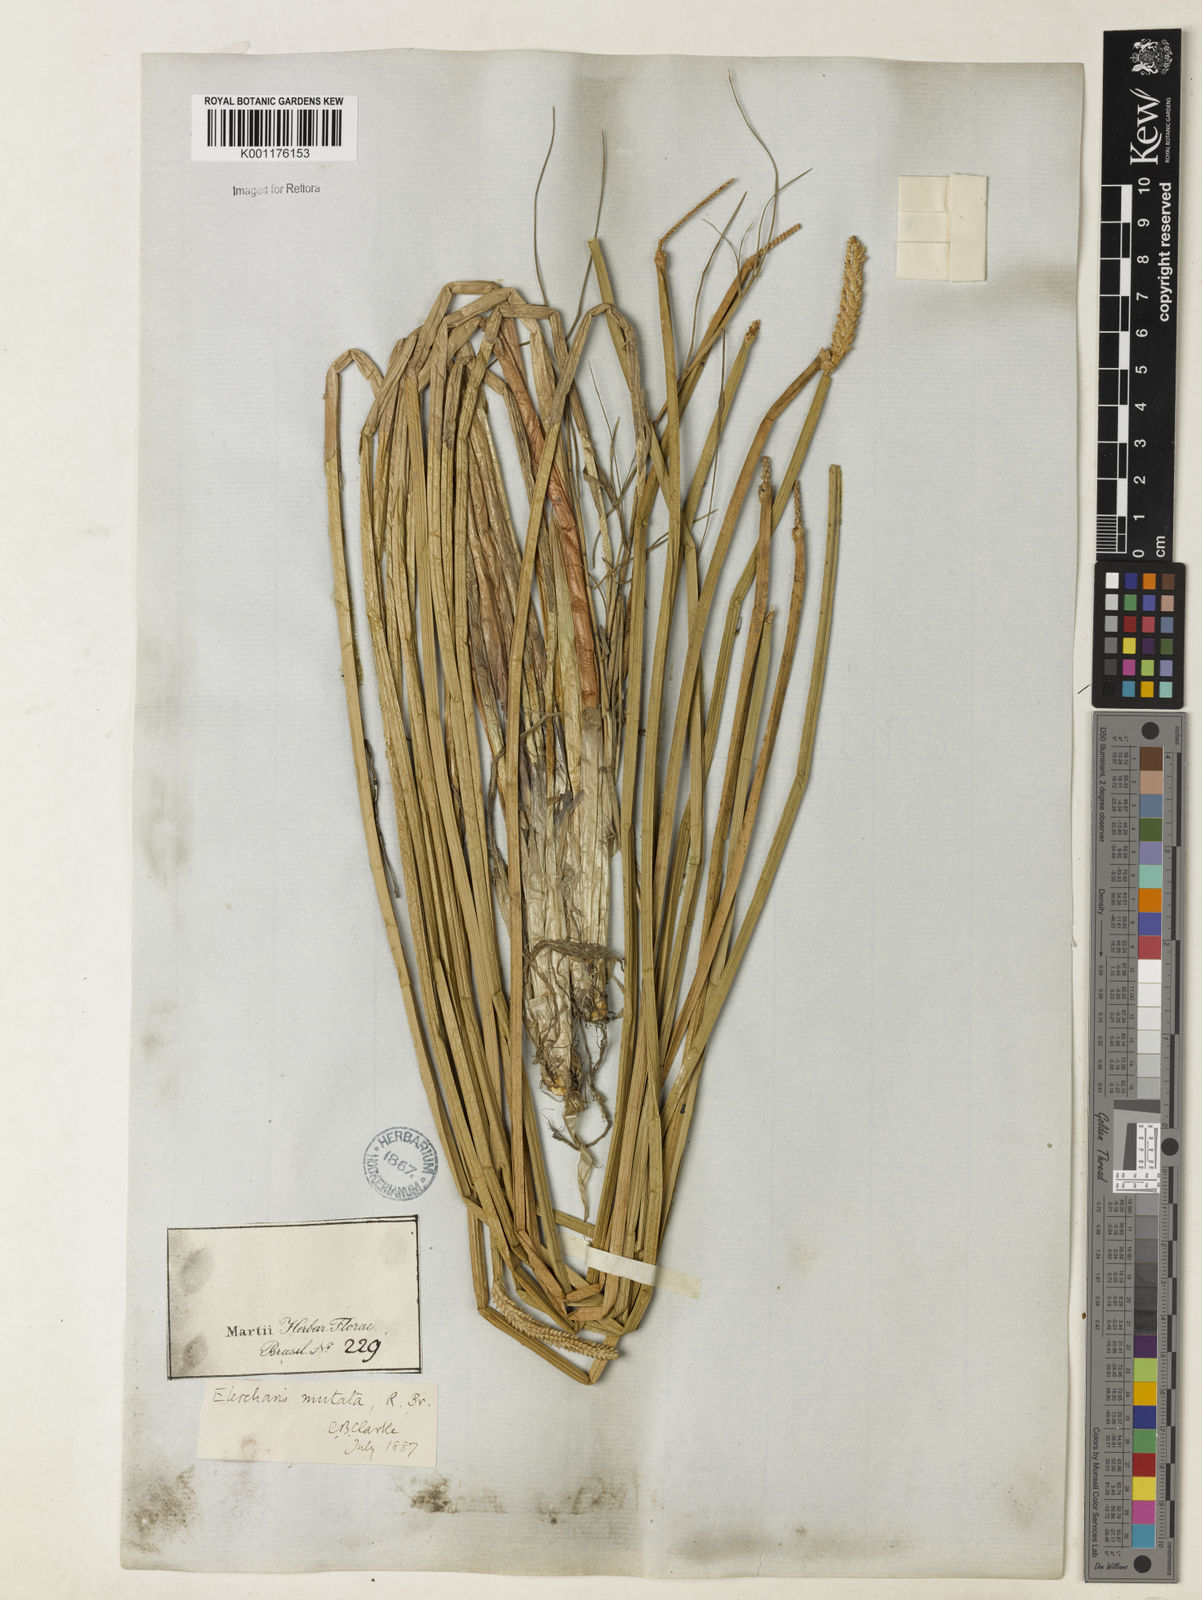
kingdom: Plantae
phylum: Tracheophyta
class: Liliopsida
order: Poales
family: Cyperaceae
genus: Eleocharis
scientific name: Eleocharis mutata
